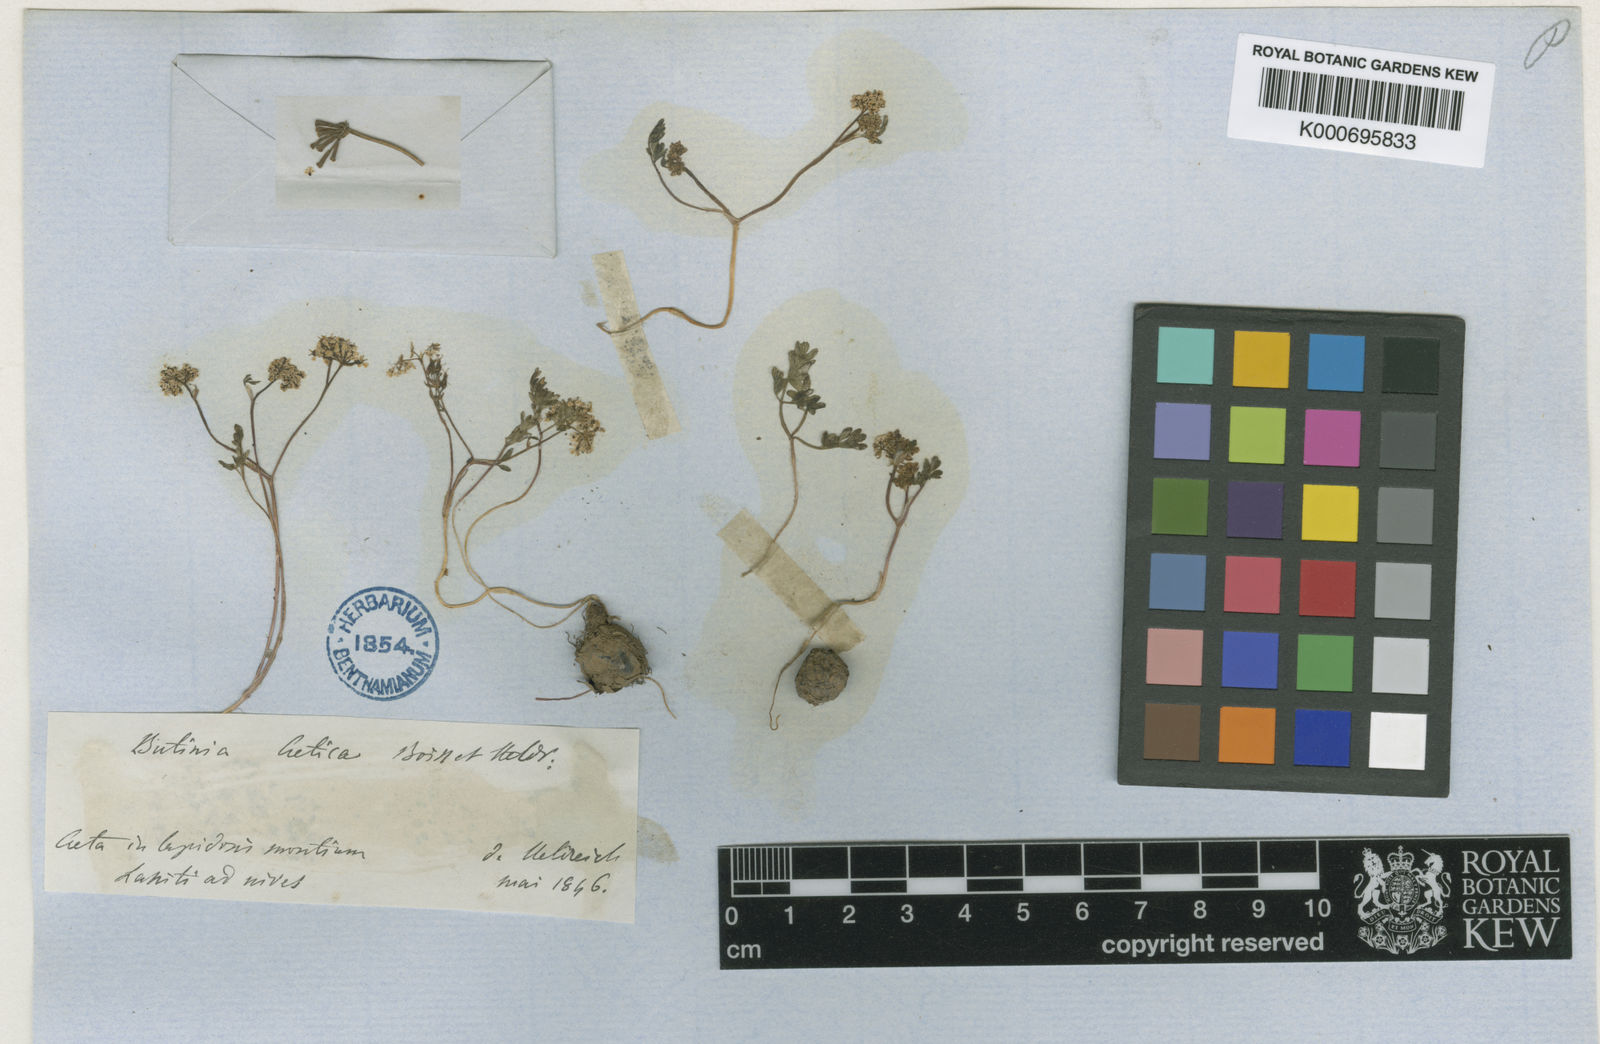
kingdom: Plantae
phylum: Tracheophyta
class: Magnoliopsida
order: Apiales
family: Apiaceae
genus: Geocaryum
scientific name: Geocaryum creticum
